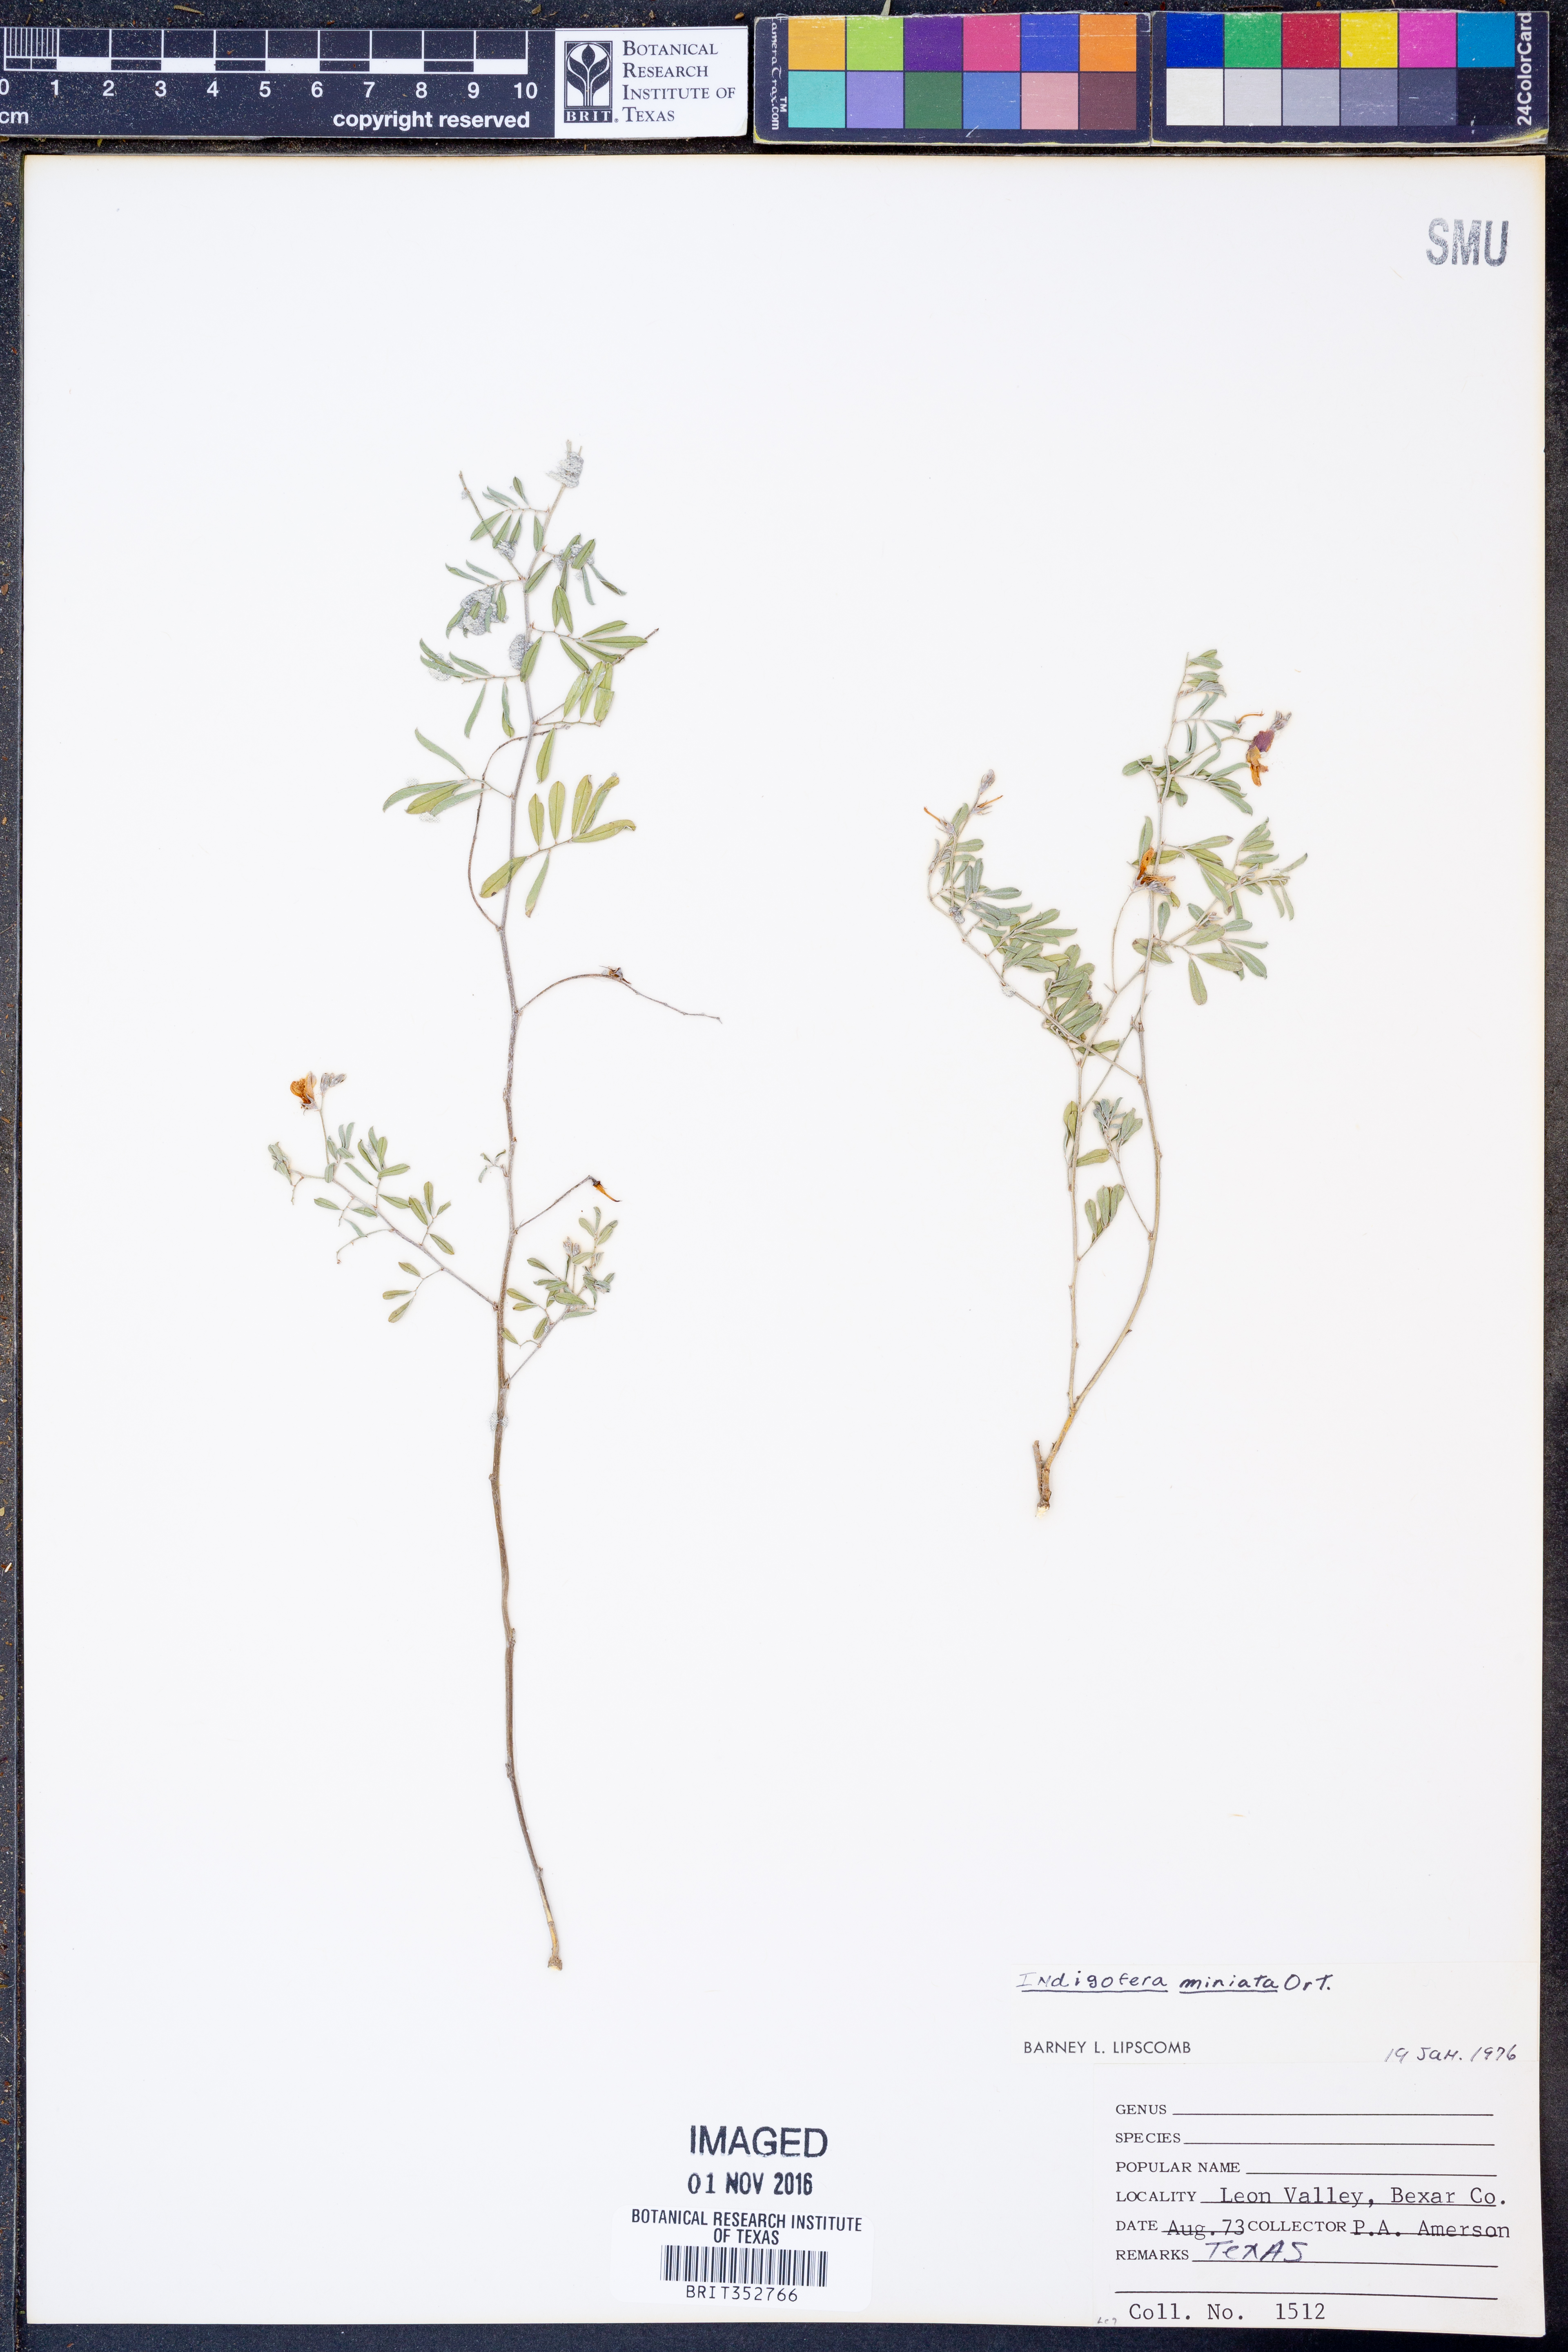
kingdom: Plantae
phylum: Tracheophyta
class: Magnoliopsida
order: Fabales
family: Fabaceae
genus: Indigofera
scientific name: Indigofera miniata
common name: Coast indigo
